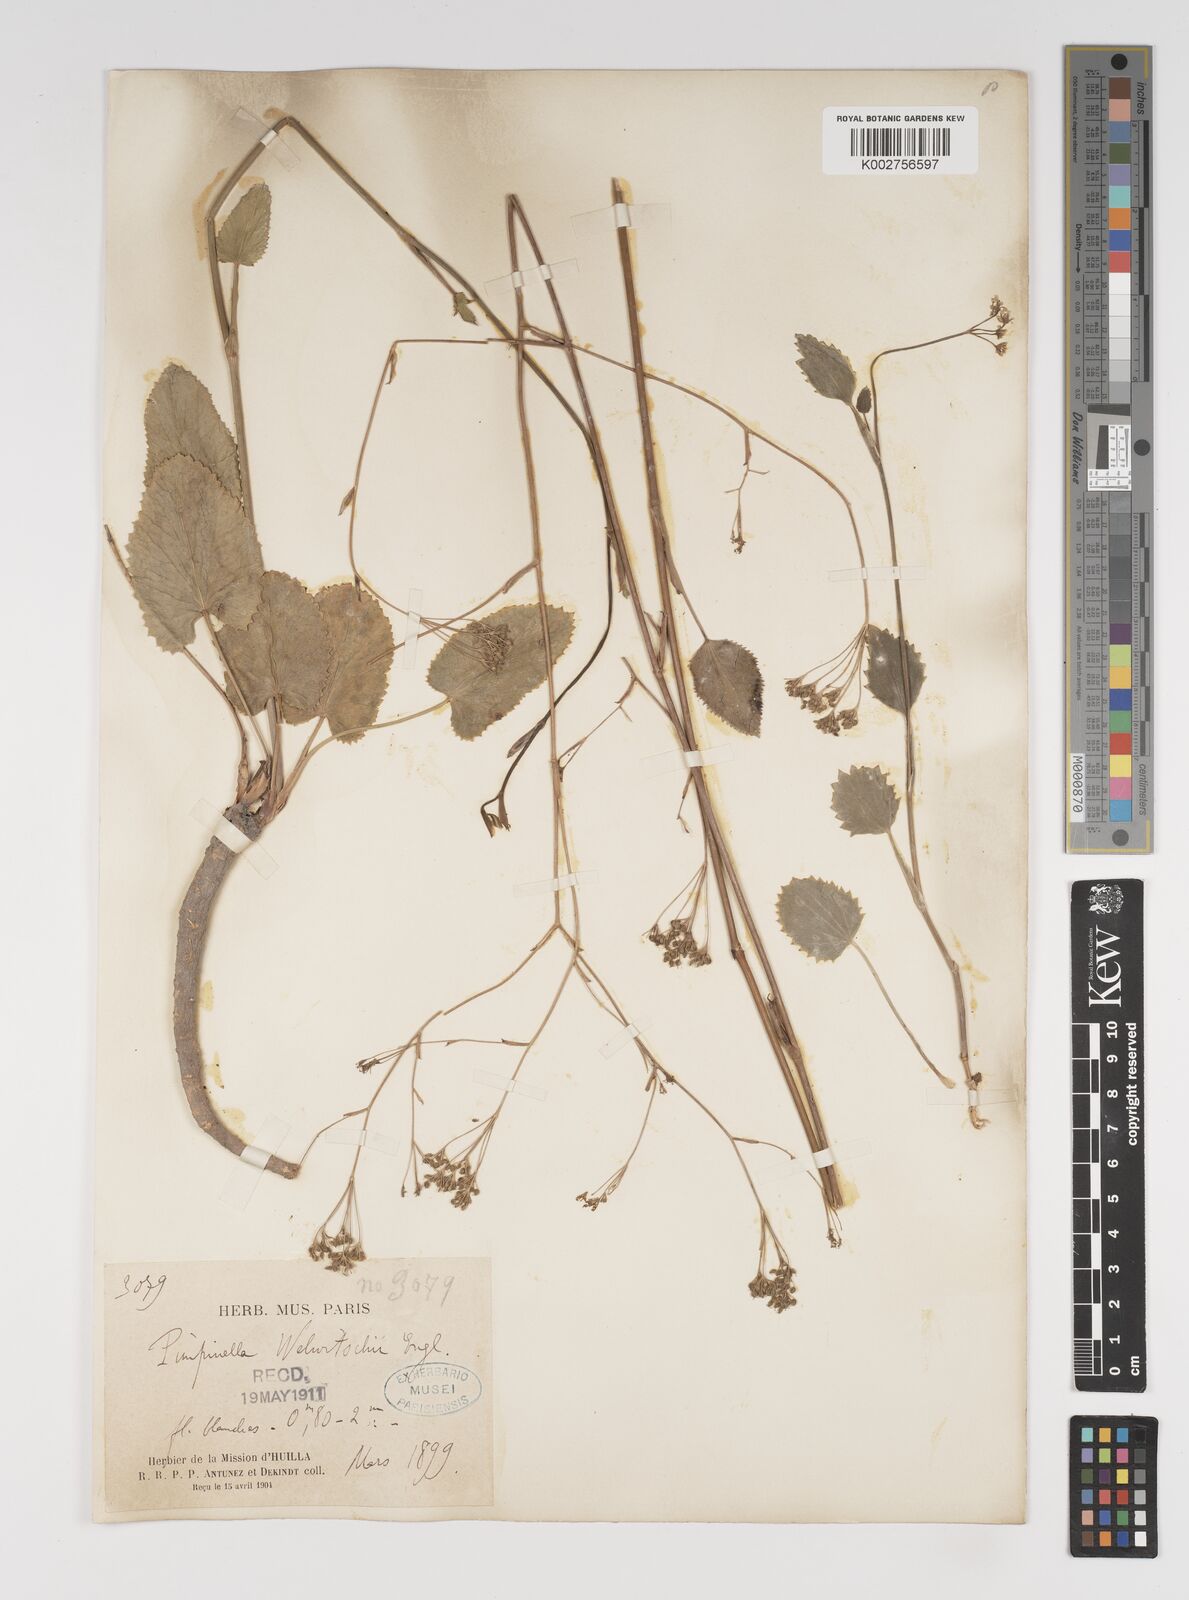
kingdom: Plantae
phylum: Tracheophyta
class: Magnoliopsida
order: Apiales
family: Apiaceae
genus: Pimpinella
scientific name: Pimpinella huillensis
